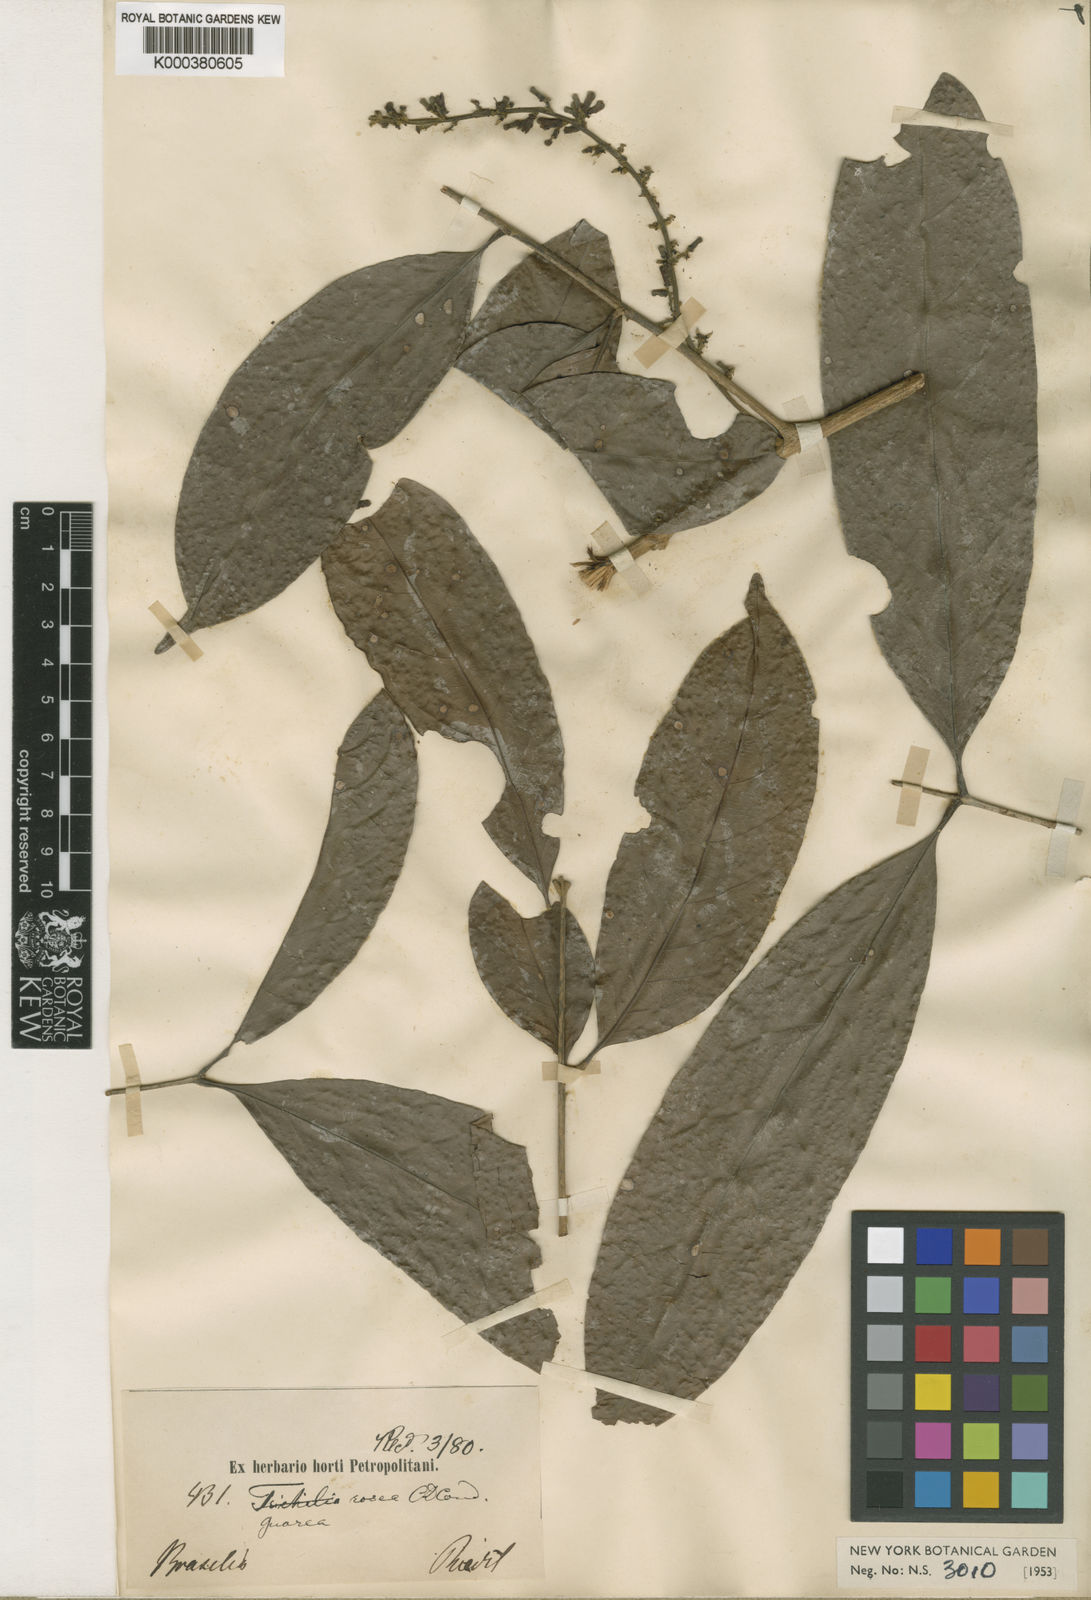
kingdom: Plantae
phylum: Tracheophyta
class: Magnoliopsida
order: Sapindales
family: Meliaceae
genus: Guarea
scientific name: Guarea macrophylla
